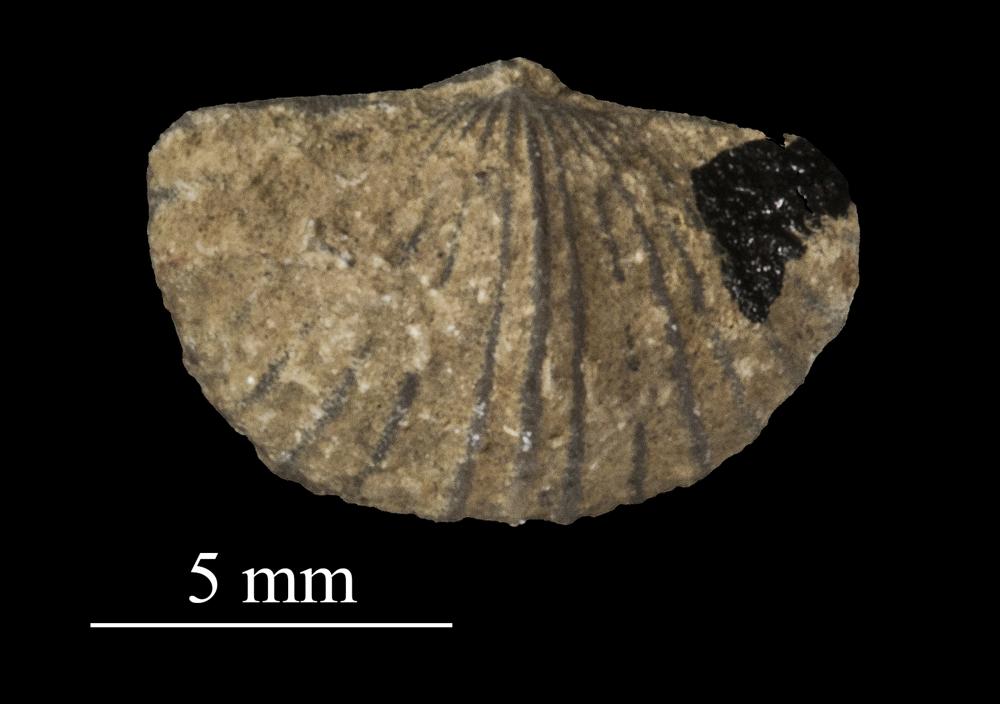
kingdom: Animalia
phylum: Brachiopoda
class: Rhynchonellata
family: Plectorthidae
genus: Platystrophia
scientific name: Platystrophia dentata
